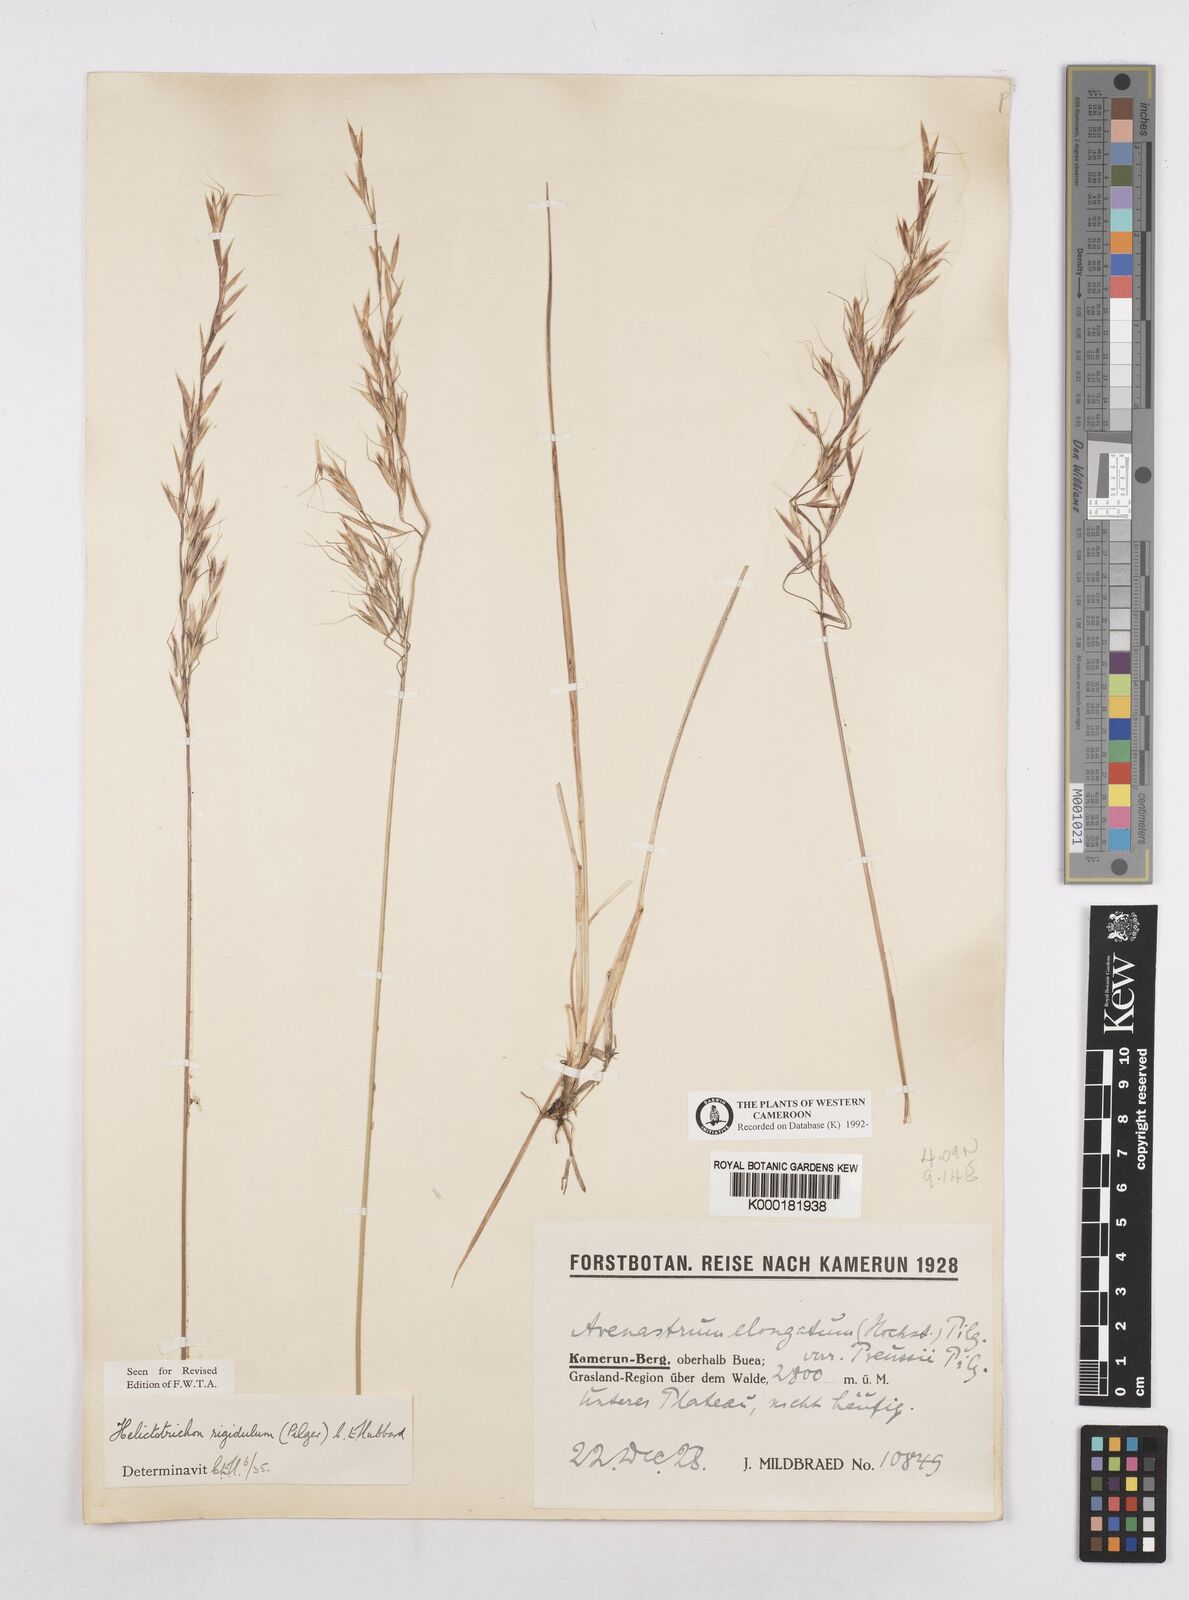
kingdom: Plantae
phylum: Tracheophyta
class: Liliopsida
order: Poales
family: Poaceae
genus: Trisetopsis
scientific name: Trisetopsis elongata
